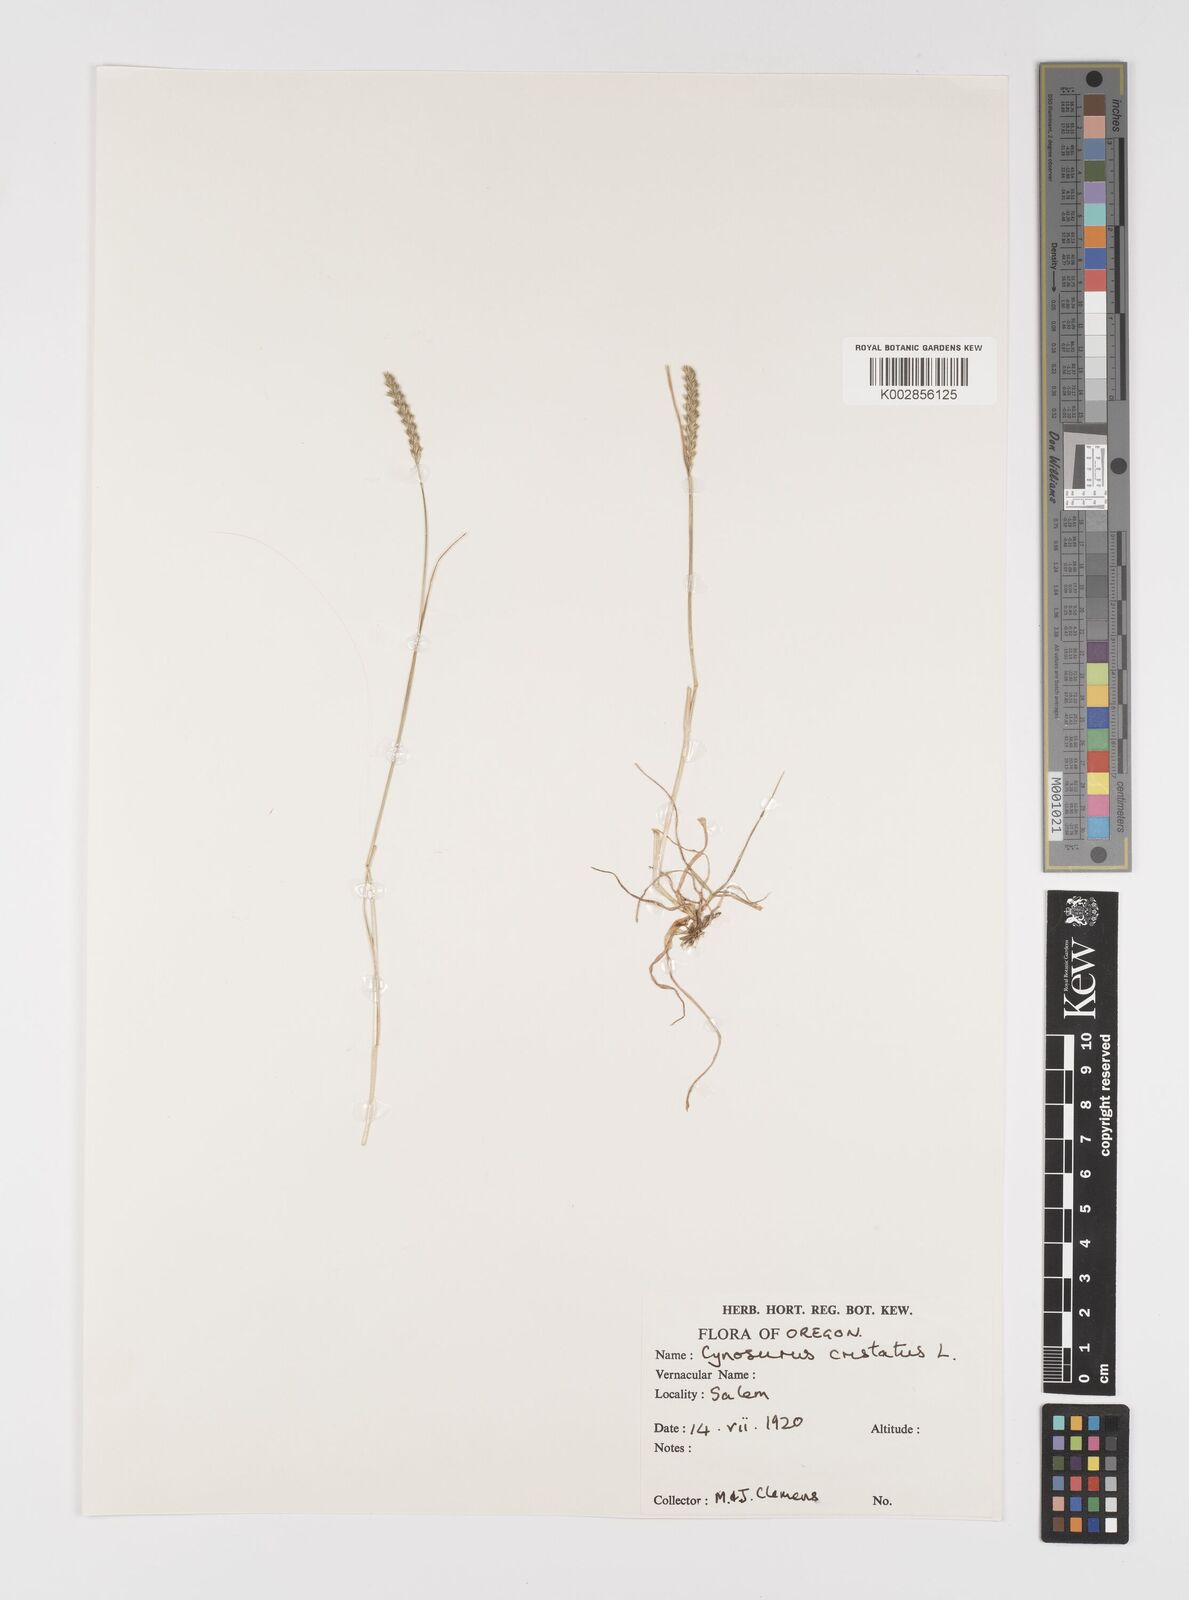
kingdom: Plantae
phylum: Tracheophyta
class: Liliopsida
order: Poales
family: Poaceae
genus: Cynosurus
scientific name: Cynosurus cristatus
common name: Crested dog's-tail
